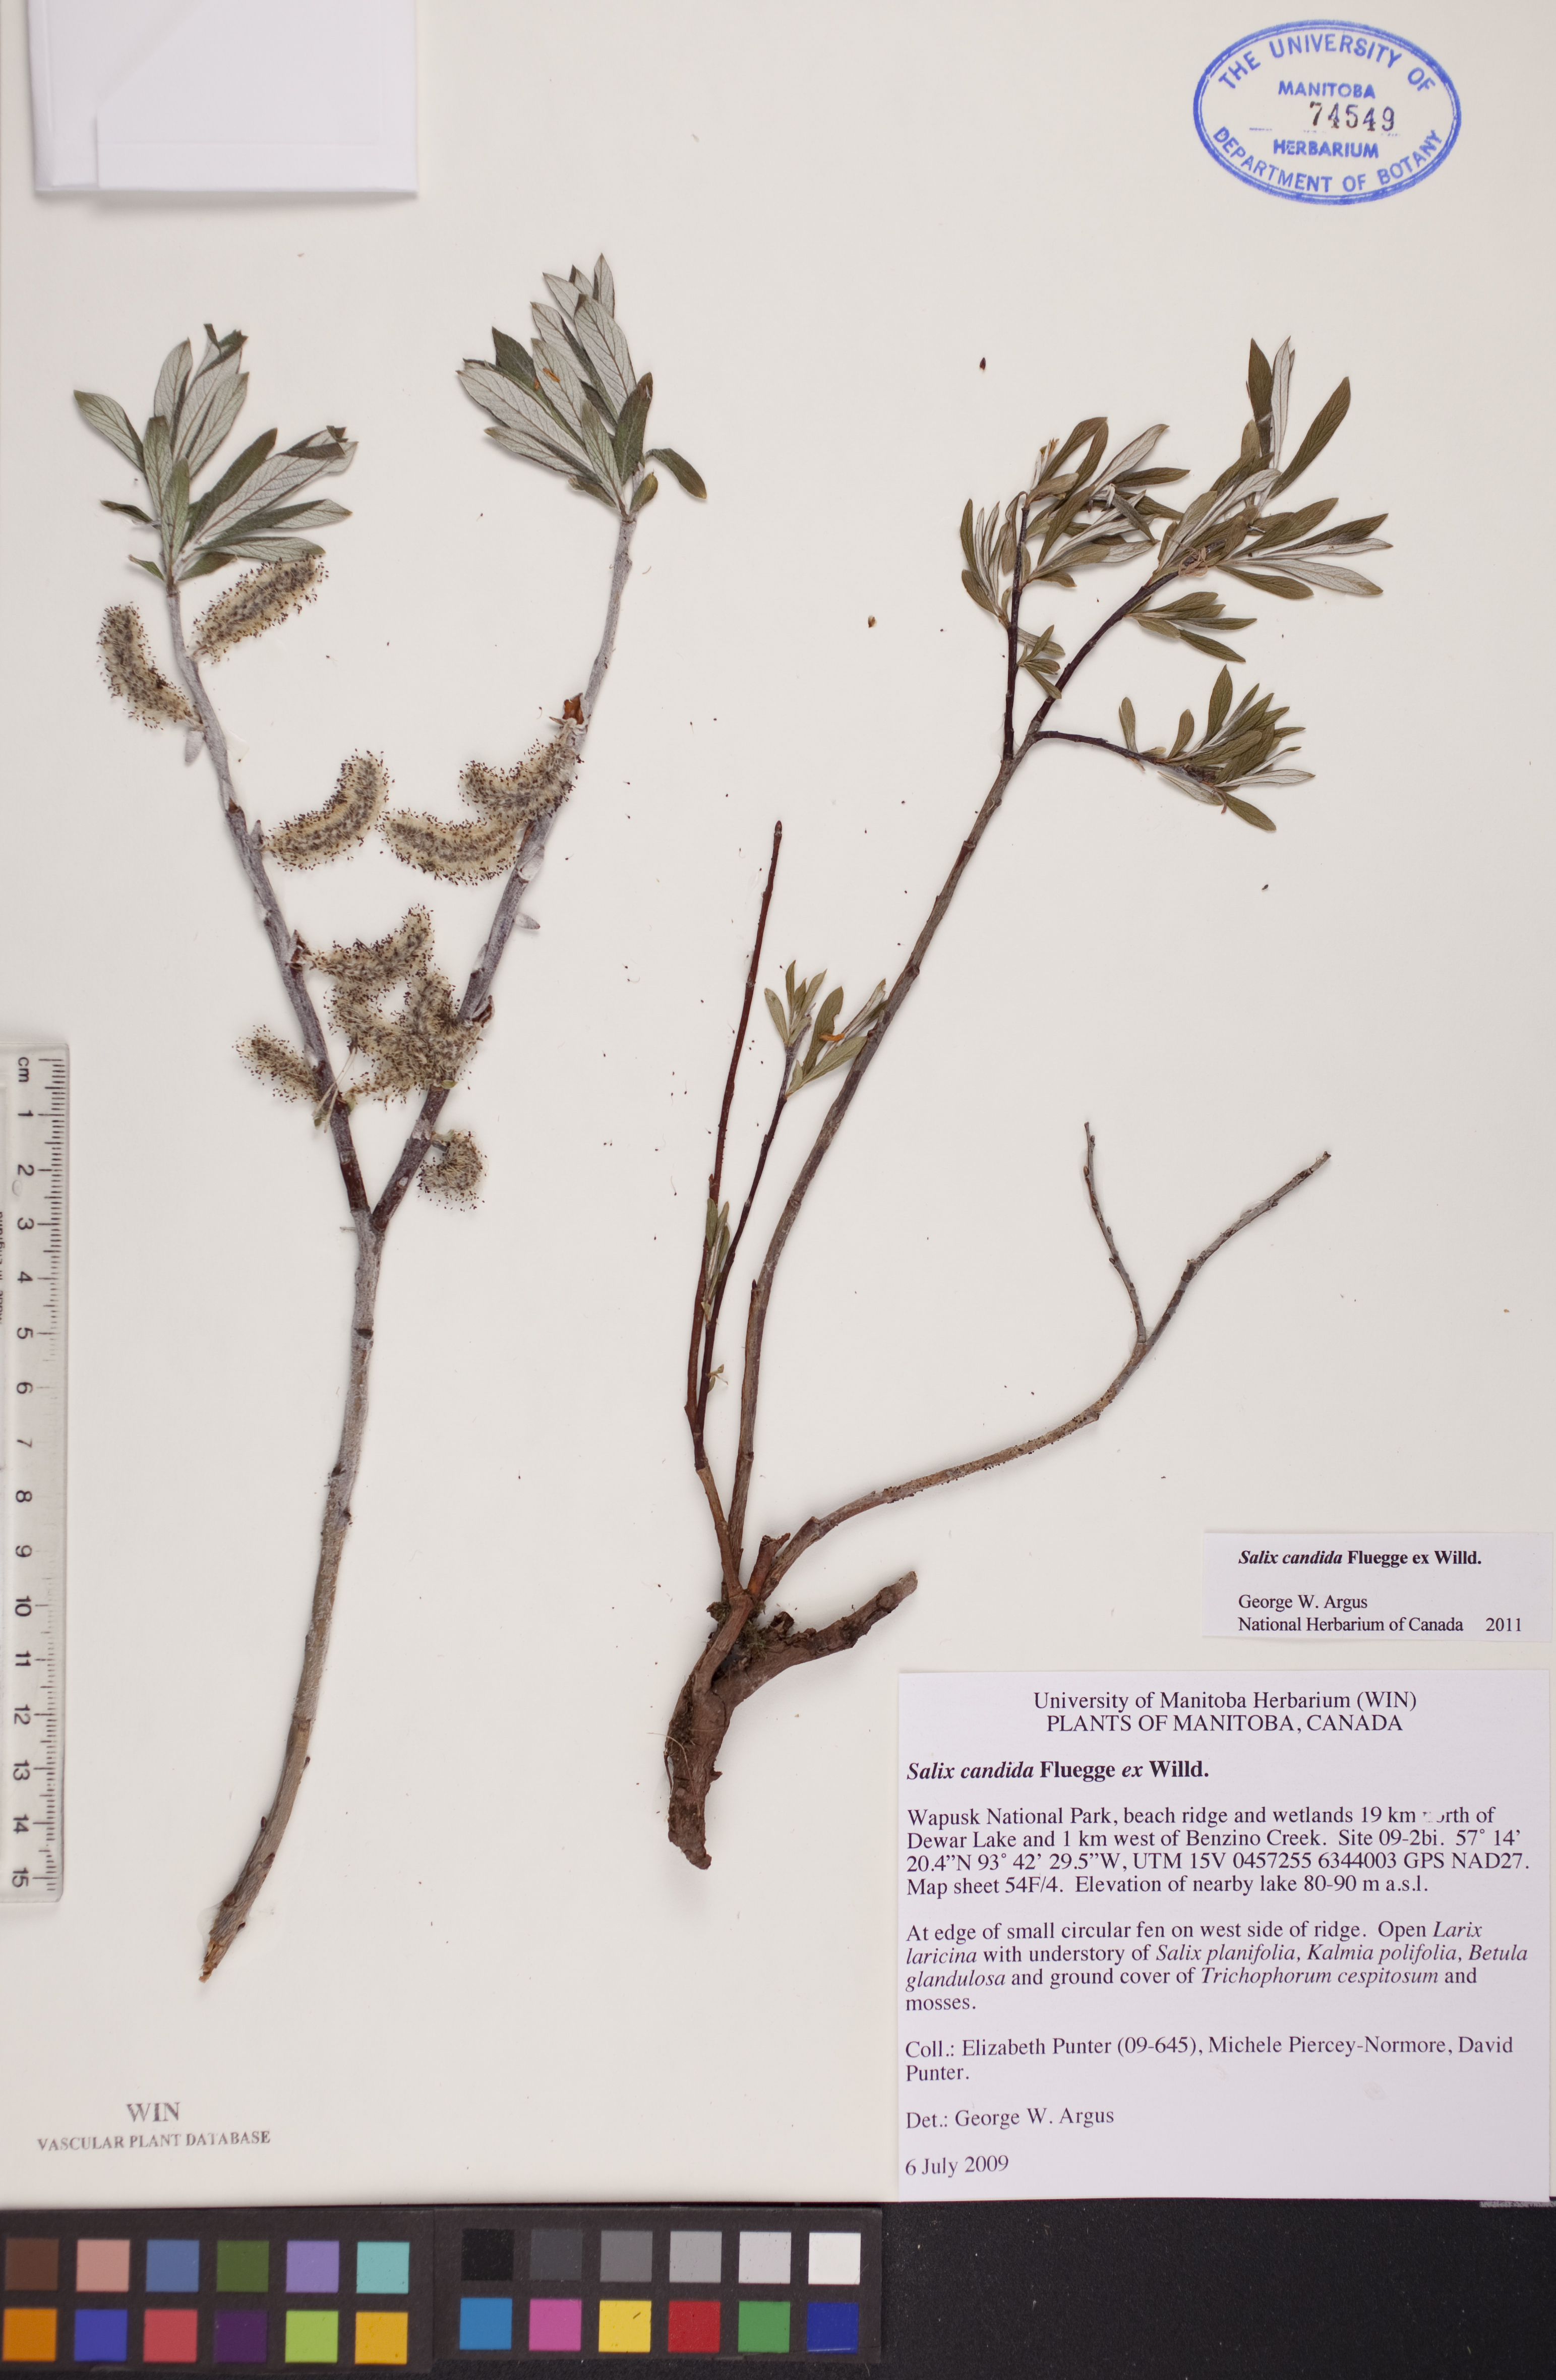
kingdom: Plantae
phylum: Tracheophyta
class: Magnoliopsida
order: Malpighiales
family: Salicaceae
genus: Salix
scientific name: Salix candida
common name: Hoary willow
